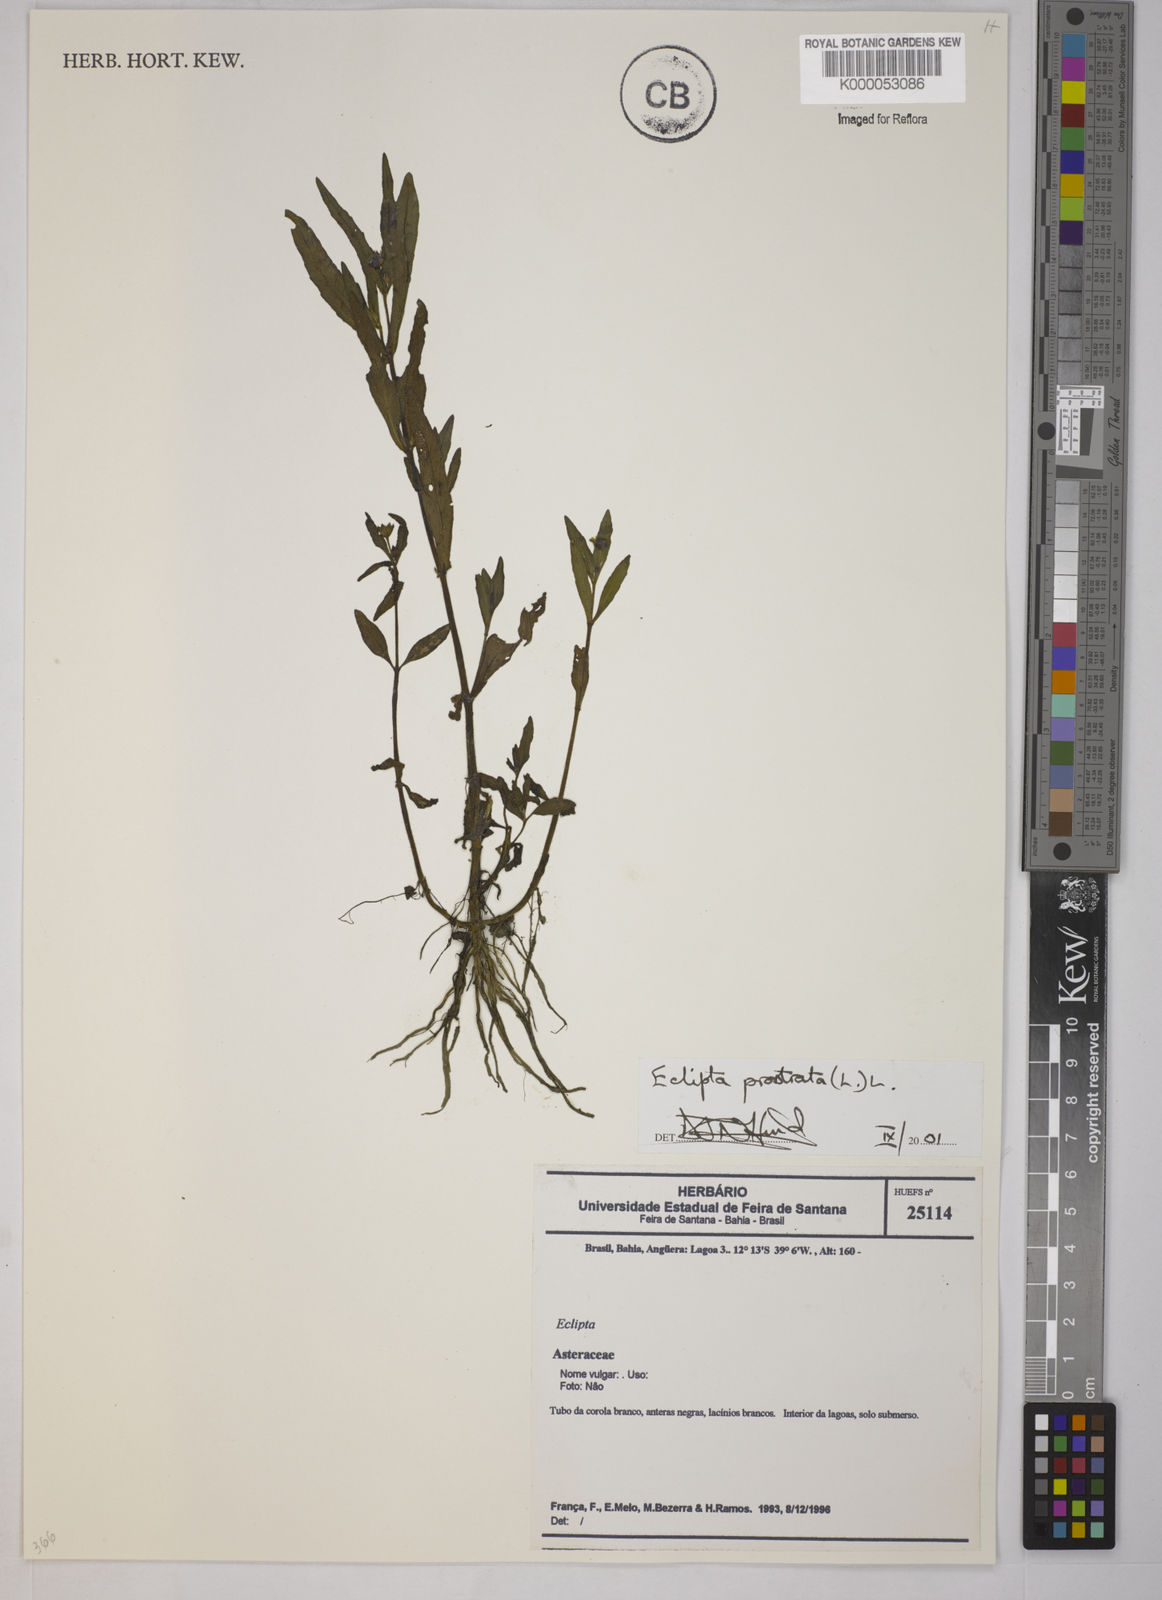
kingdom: Plantae
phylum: Tracheophyta
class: Magnoliopsida
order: Asterales
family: Asteraceae
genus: Eclipta
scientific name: Eclipta prostrata
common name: False daisy
